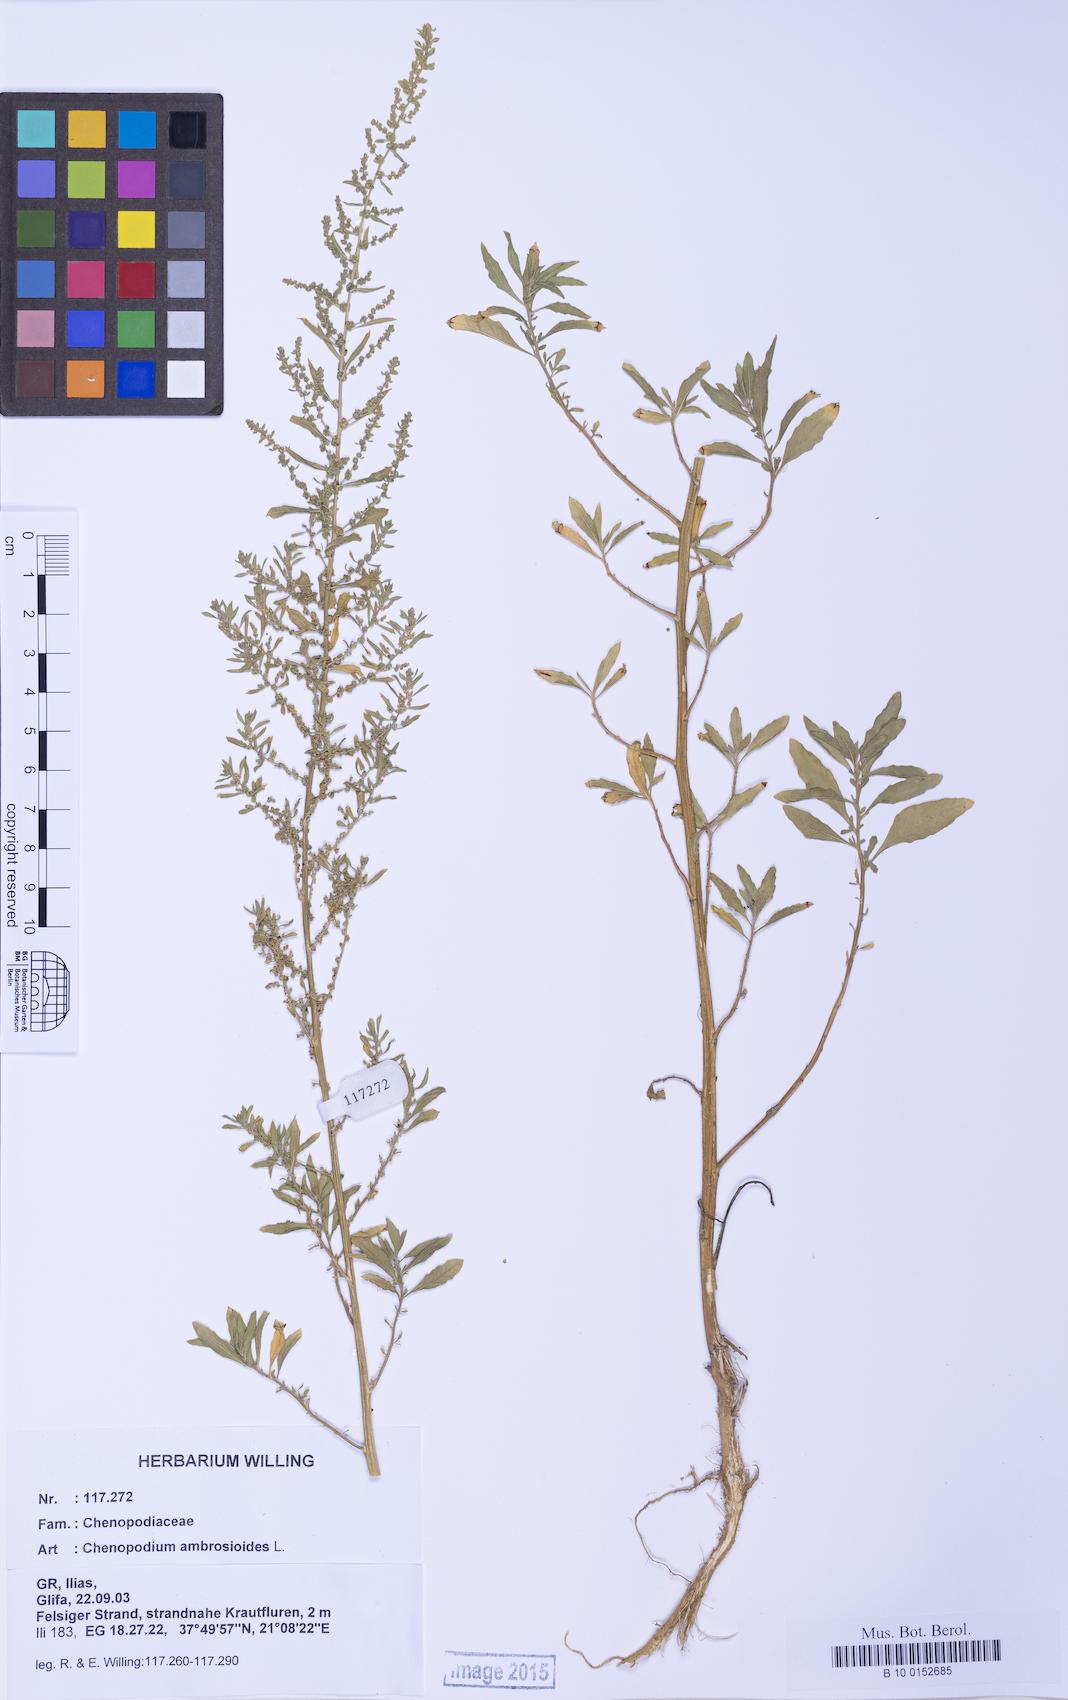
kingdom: Plantae
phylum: Tracheophyta
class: Magnoliopsida
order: Caryophyllales
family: Amaranthaceae
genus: Dysphania
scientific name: Dysphania ambrosioides
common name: Wormseed
